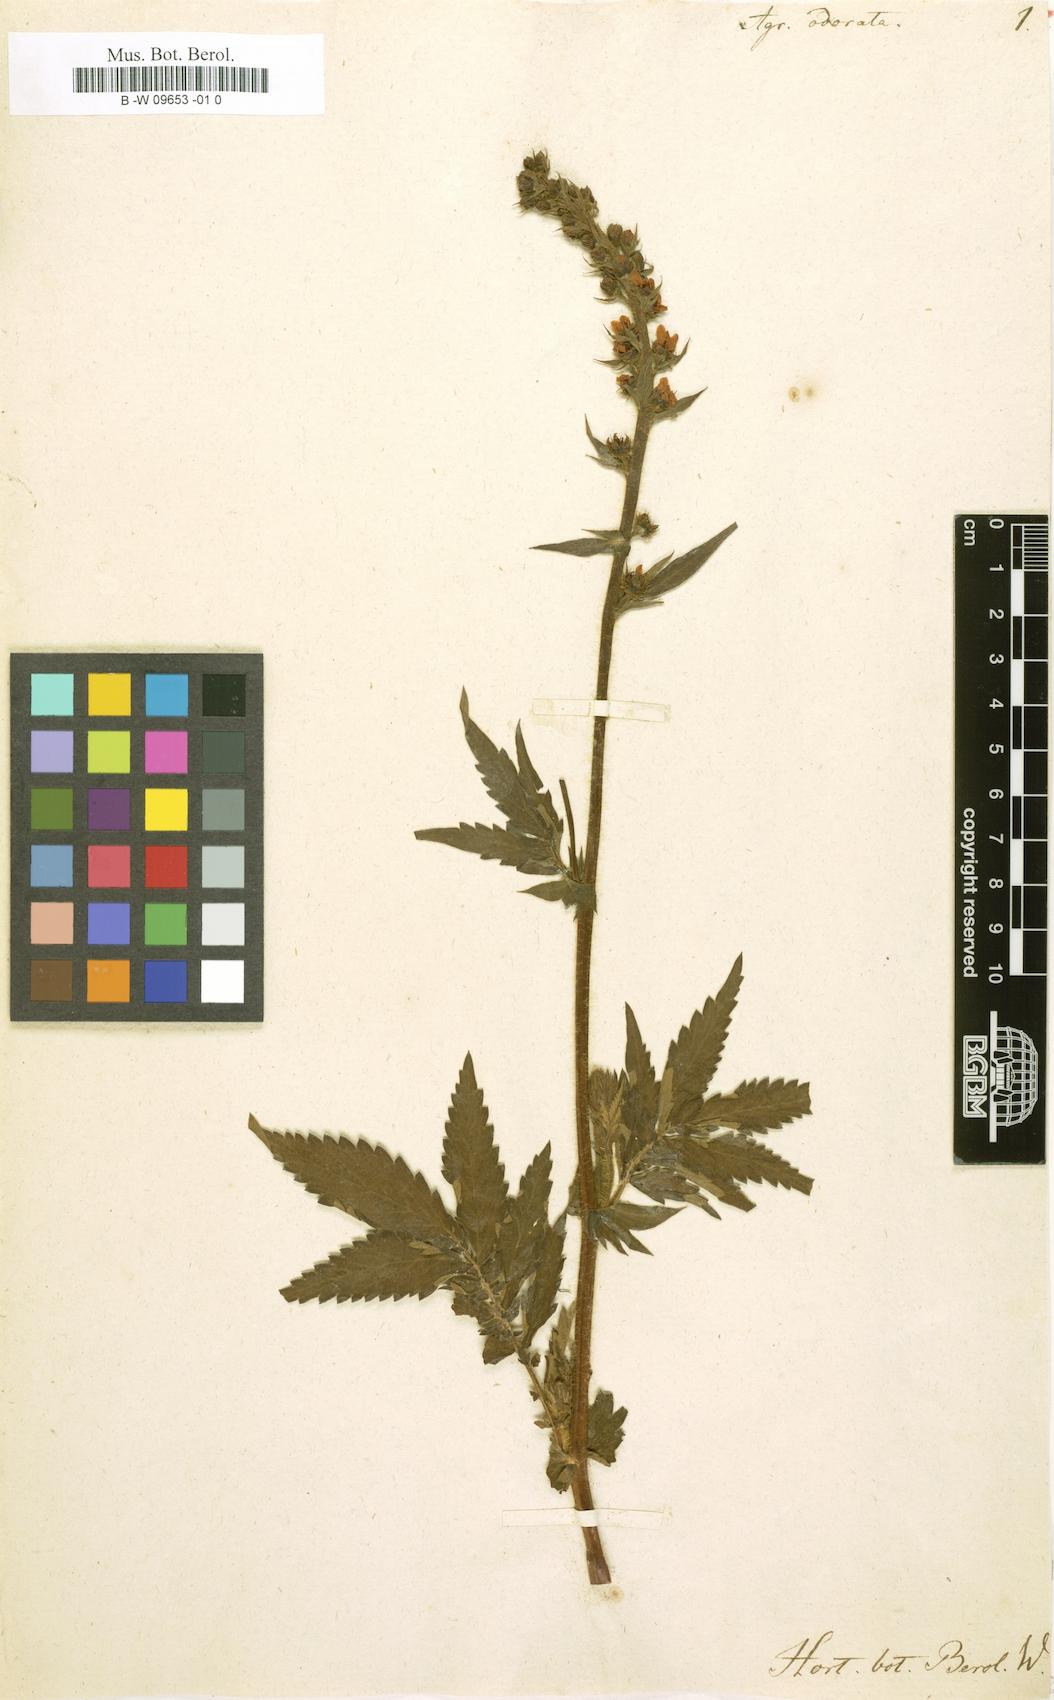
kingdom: Plantae
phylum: Tracheophyta
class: Magnoliopsida
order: Rosales
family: Rosaceae
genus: Agrimonia
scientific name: Agrimonia repens
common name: Creeping agrimony
